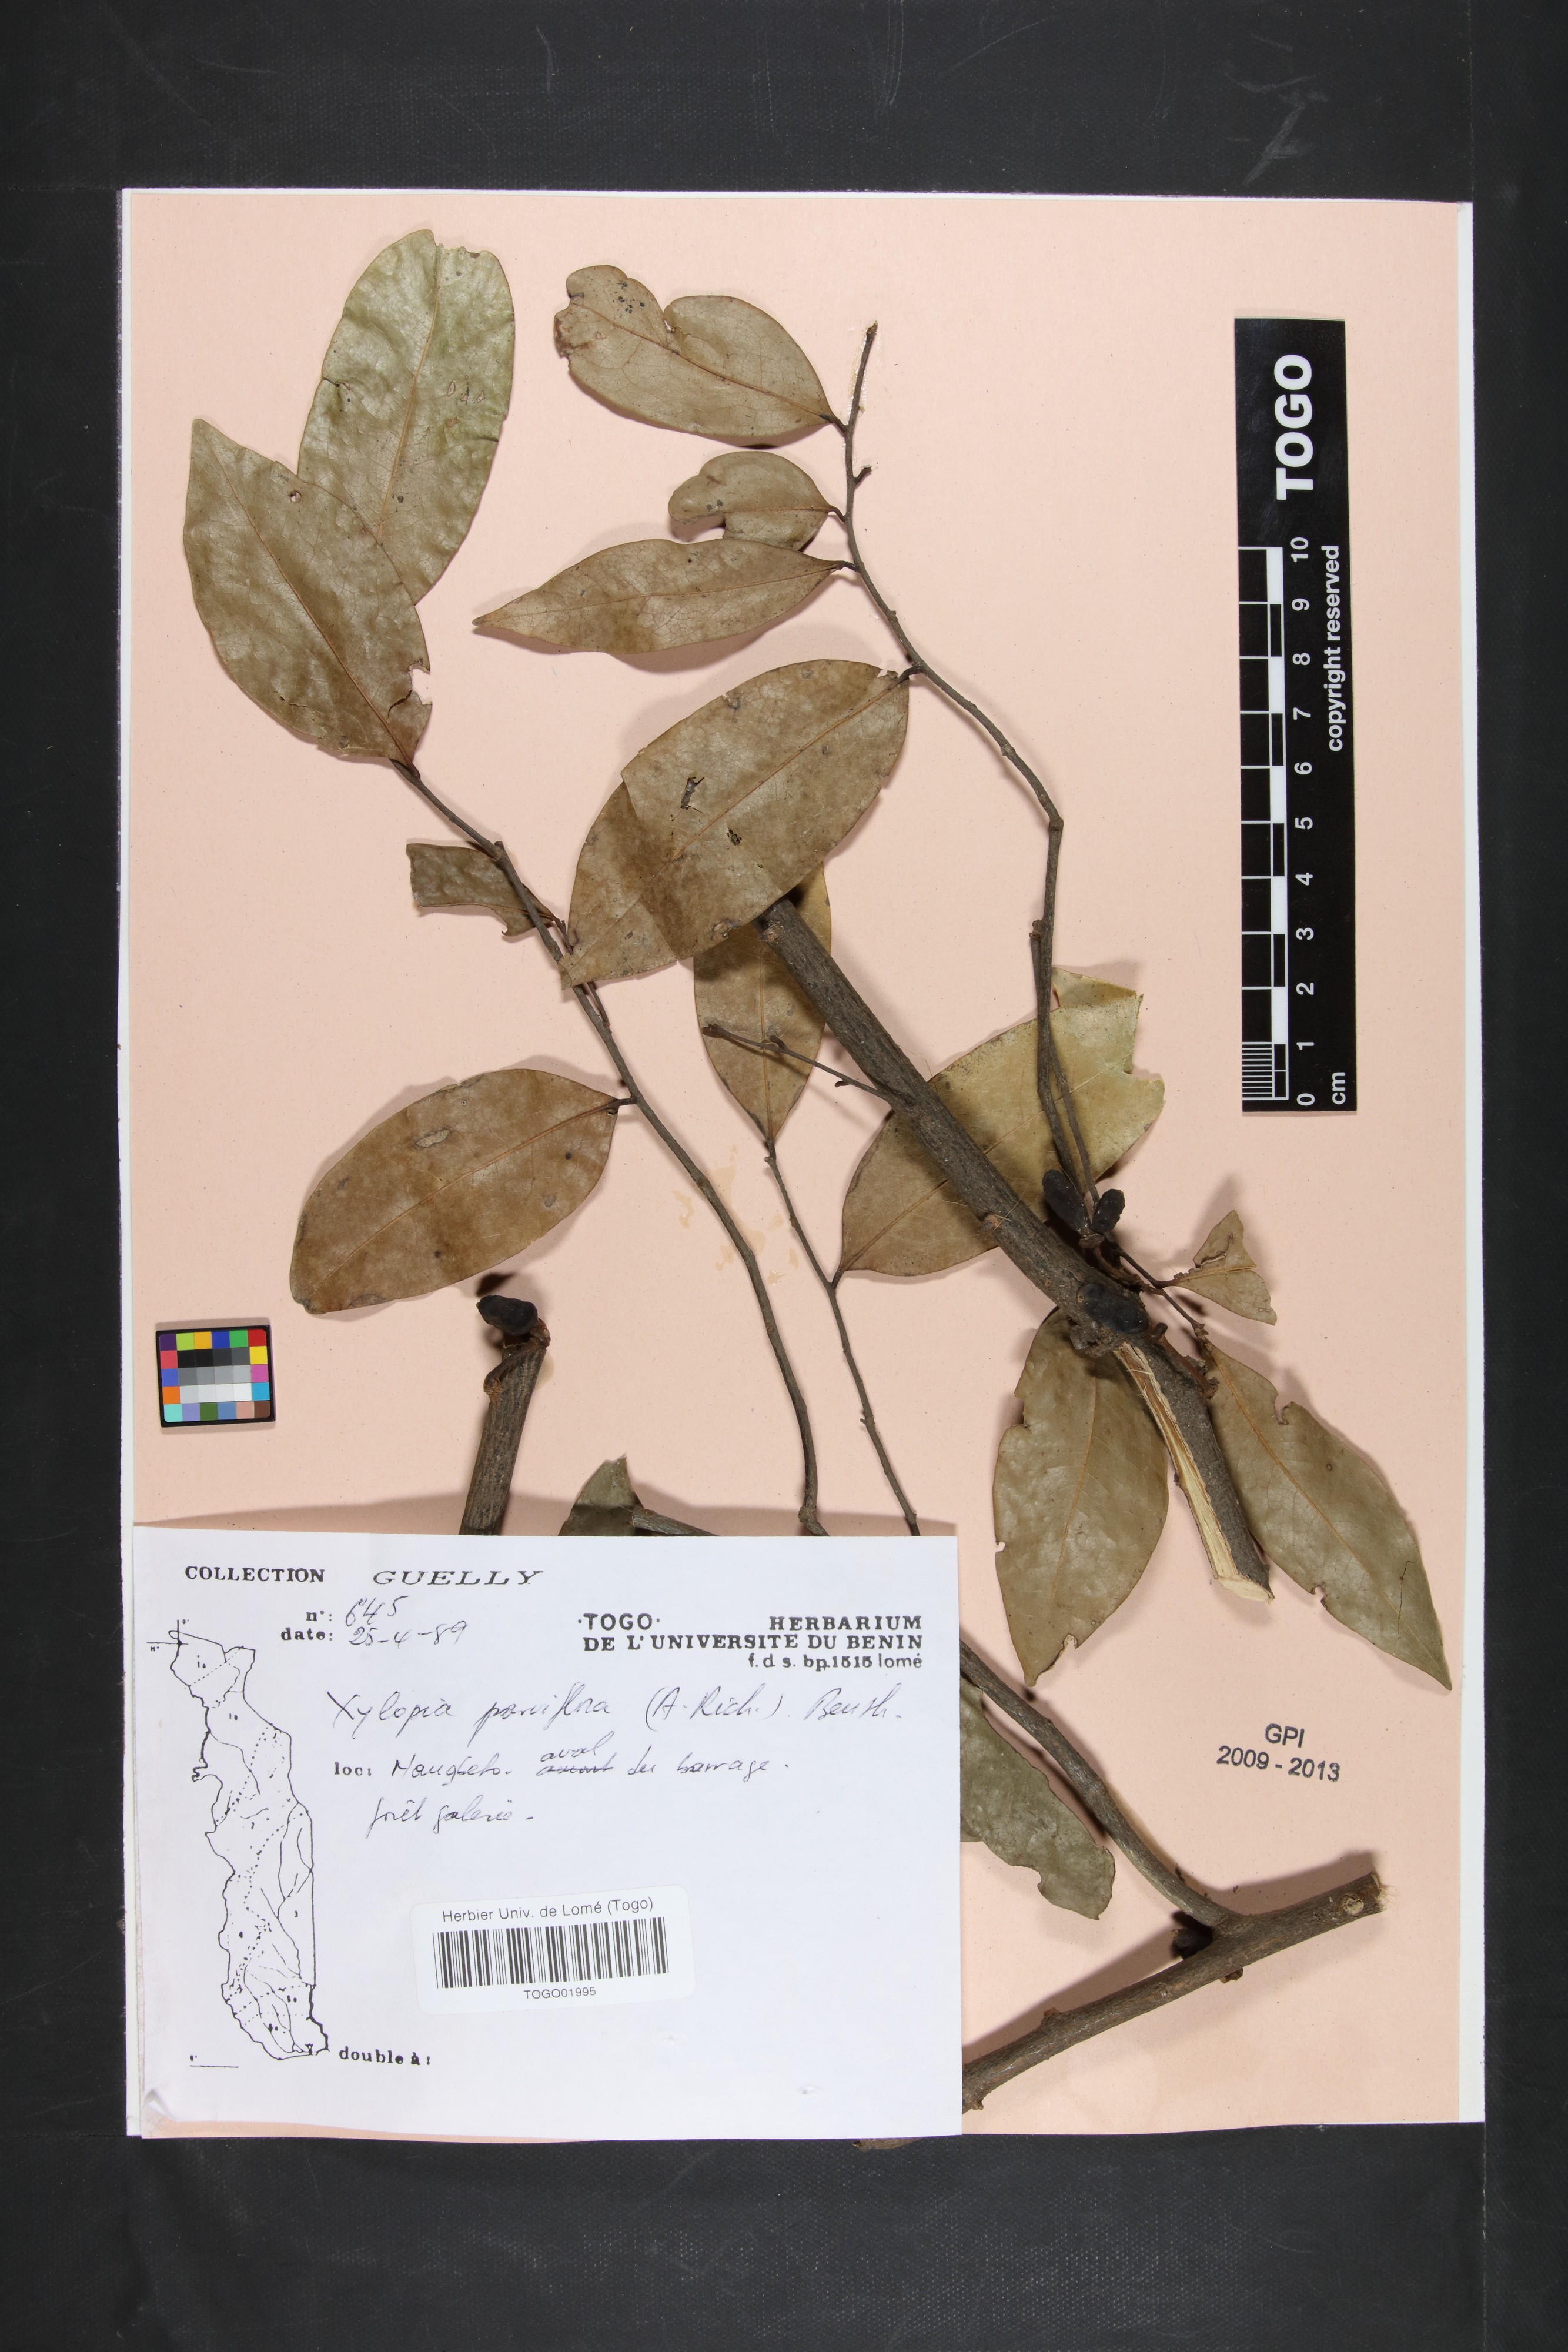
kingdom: Plantae
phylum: Tracheophyta
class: Magnoliopsida
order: Magnoliales
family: Annonaceae
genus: Xylopia
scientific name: Xylopia parviflora
